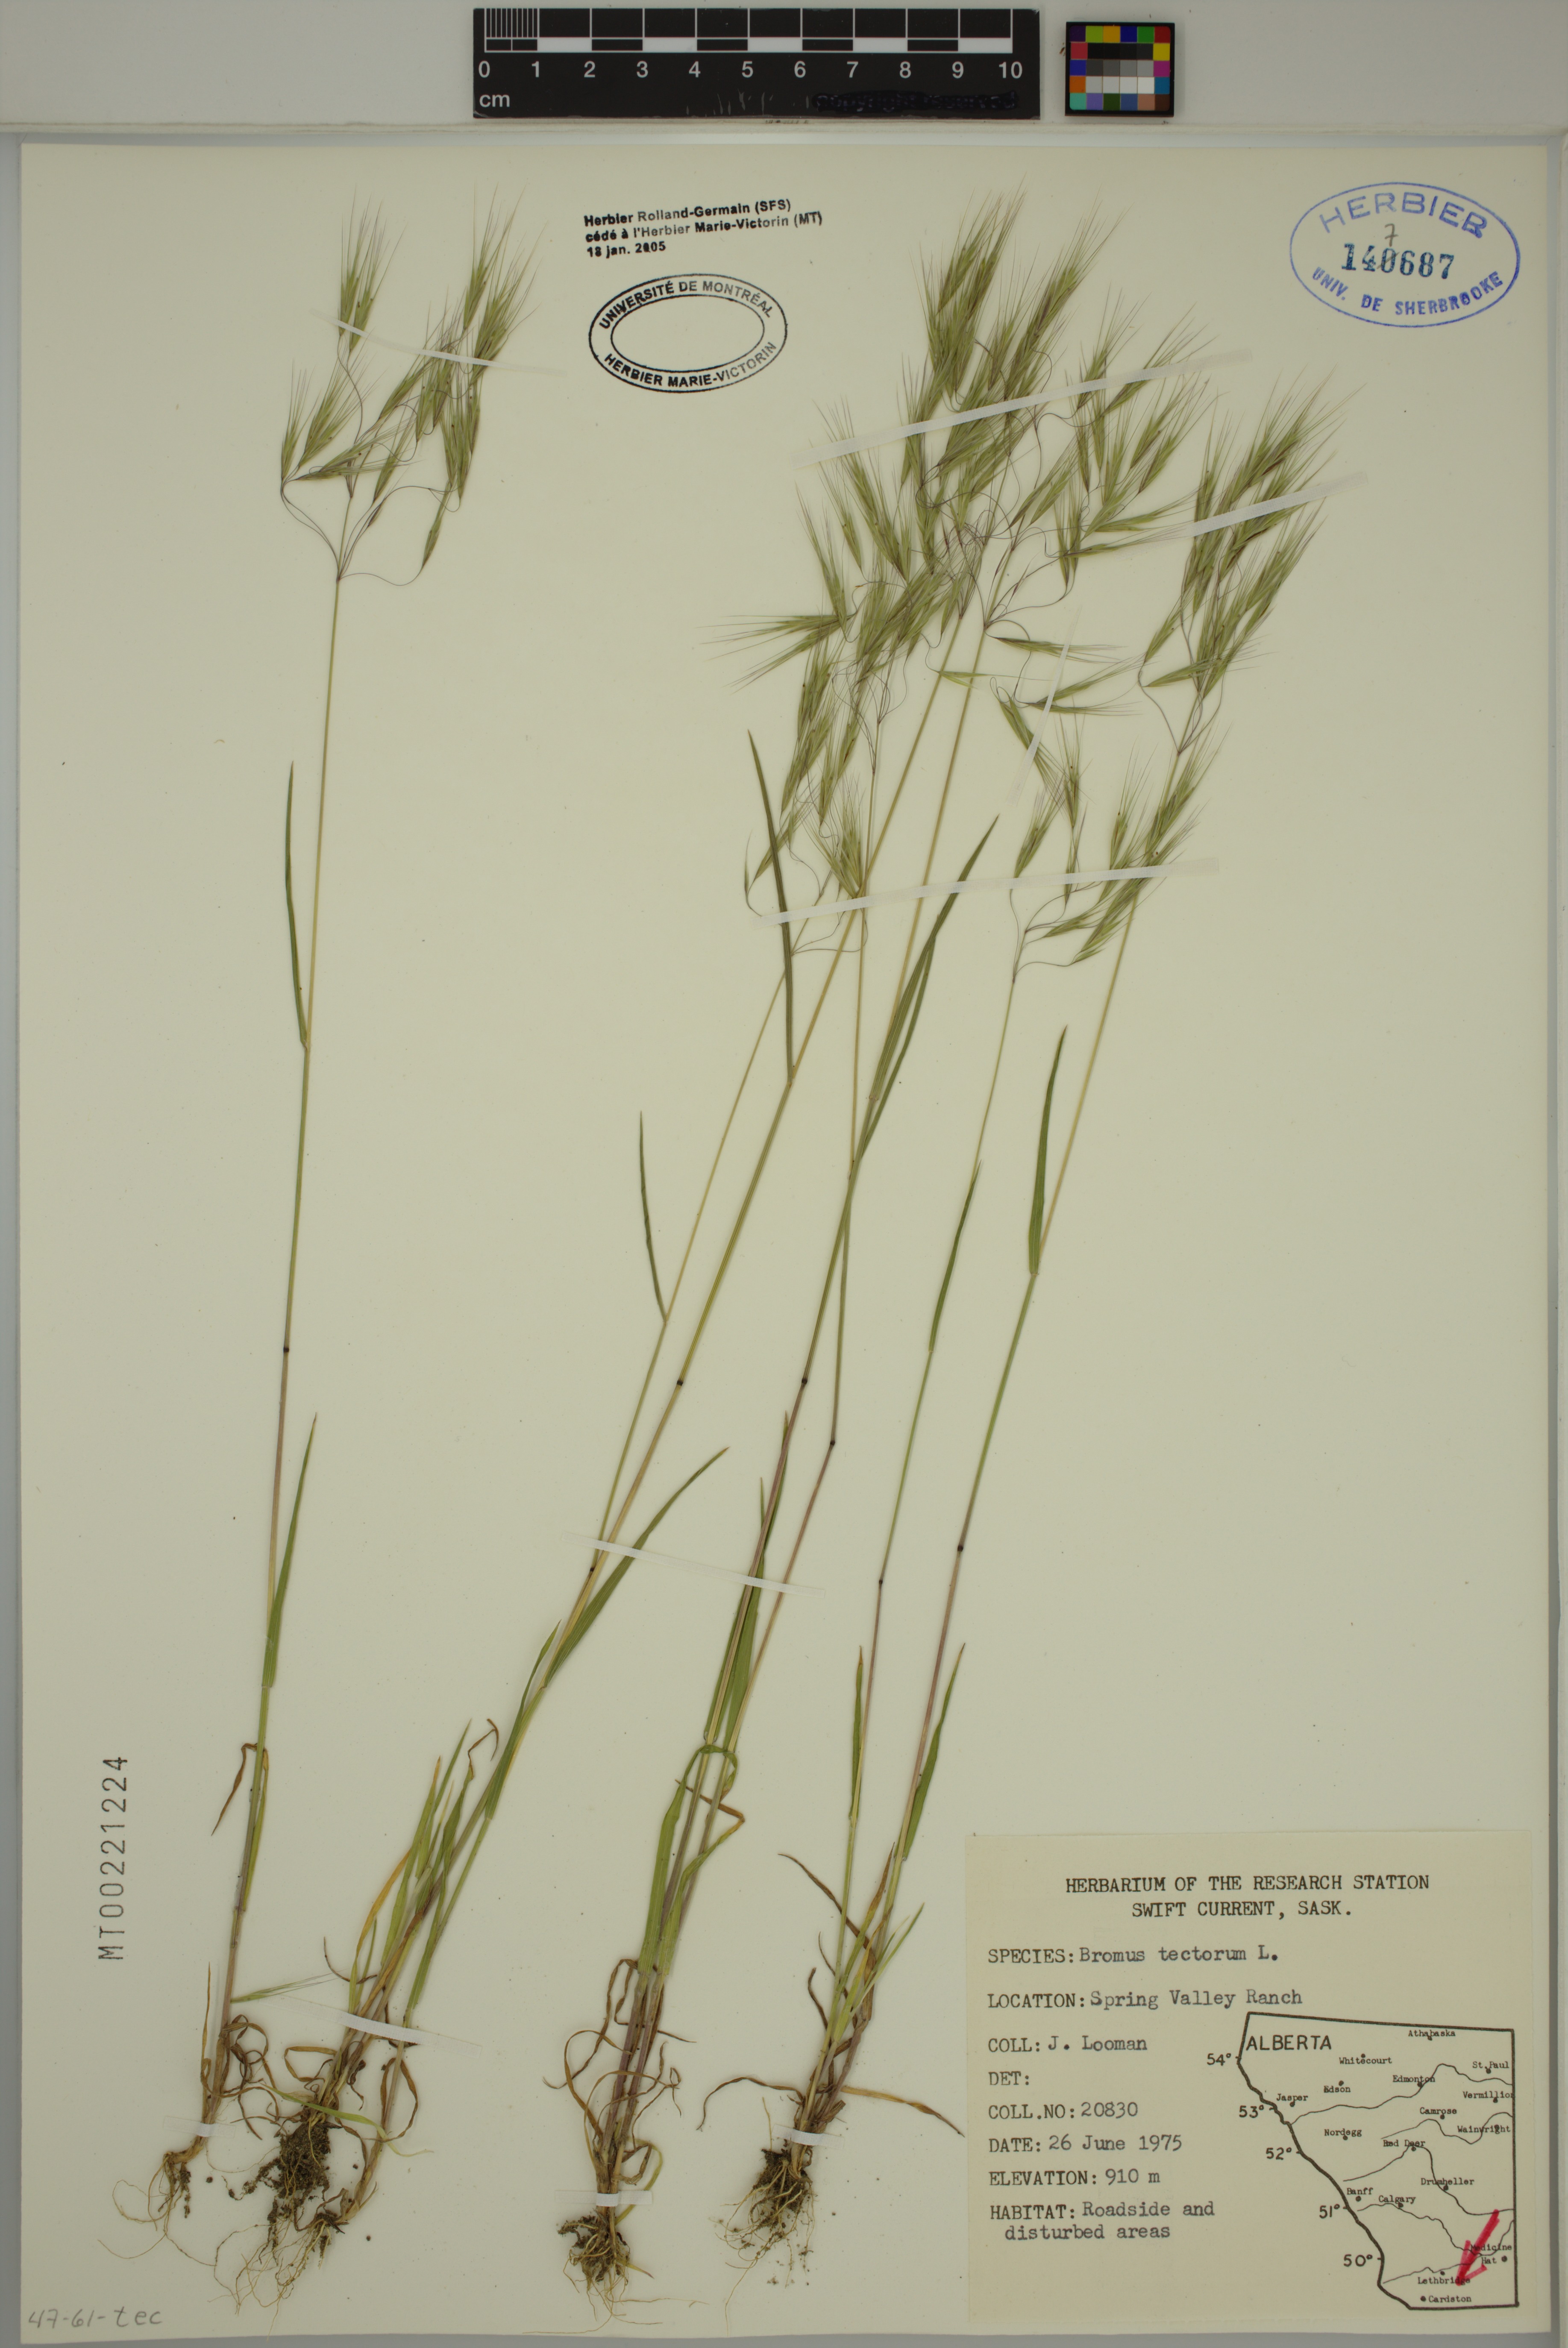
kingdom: Plantae
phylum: Tracheophyta
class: Liliopsida
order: Poales
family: Poaceae
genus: Bromus
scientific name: Bromus tectorum
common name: Cheatgrass
